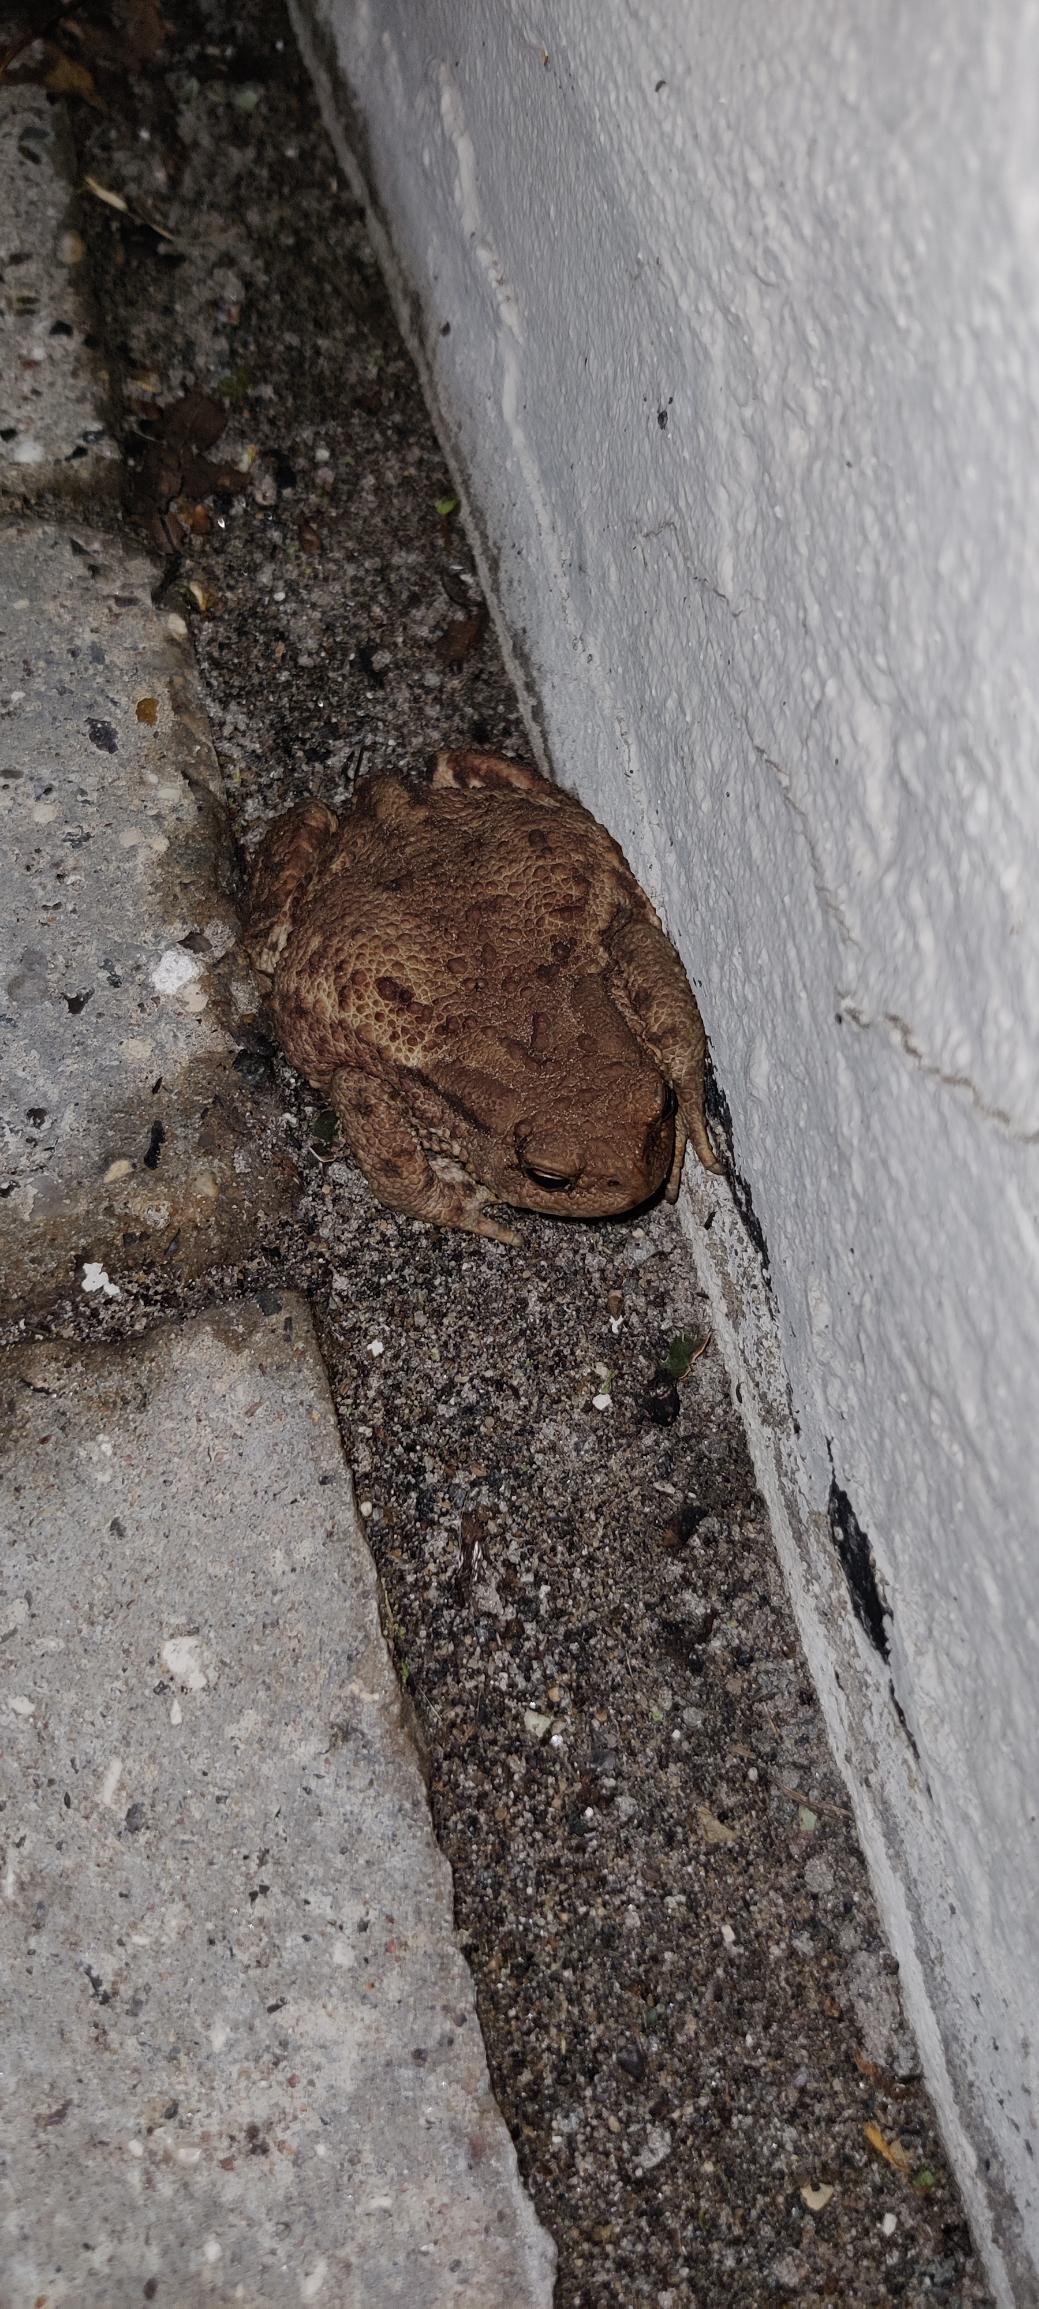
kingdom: Animalia
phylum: Chordata
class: Amphibia
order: Anura
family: Bufonidae
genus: Bufo
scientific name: Bufo bufo
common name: Skrubtudse
